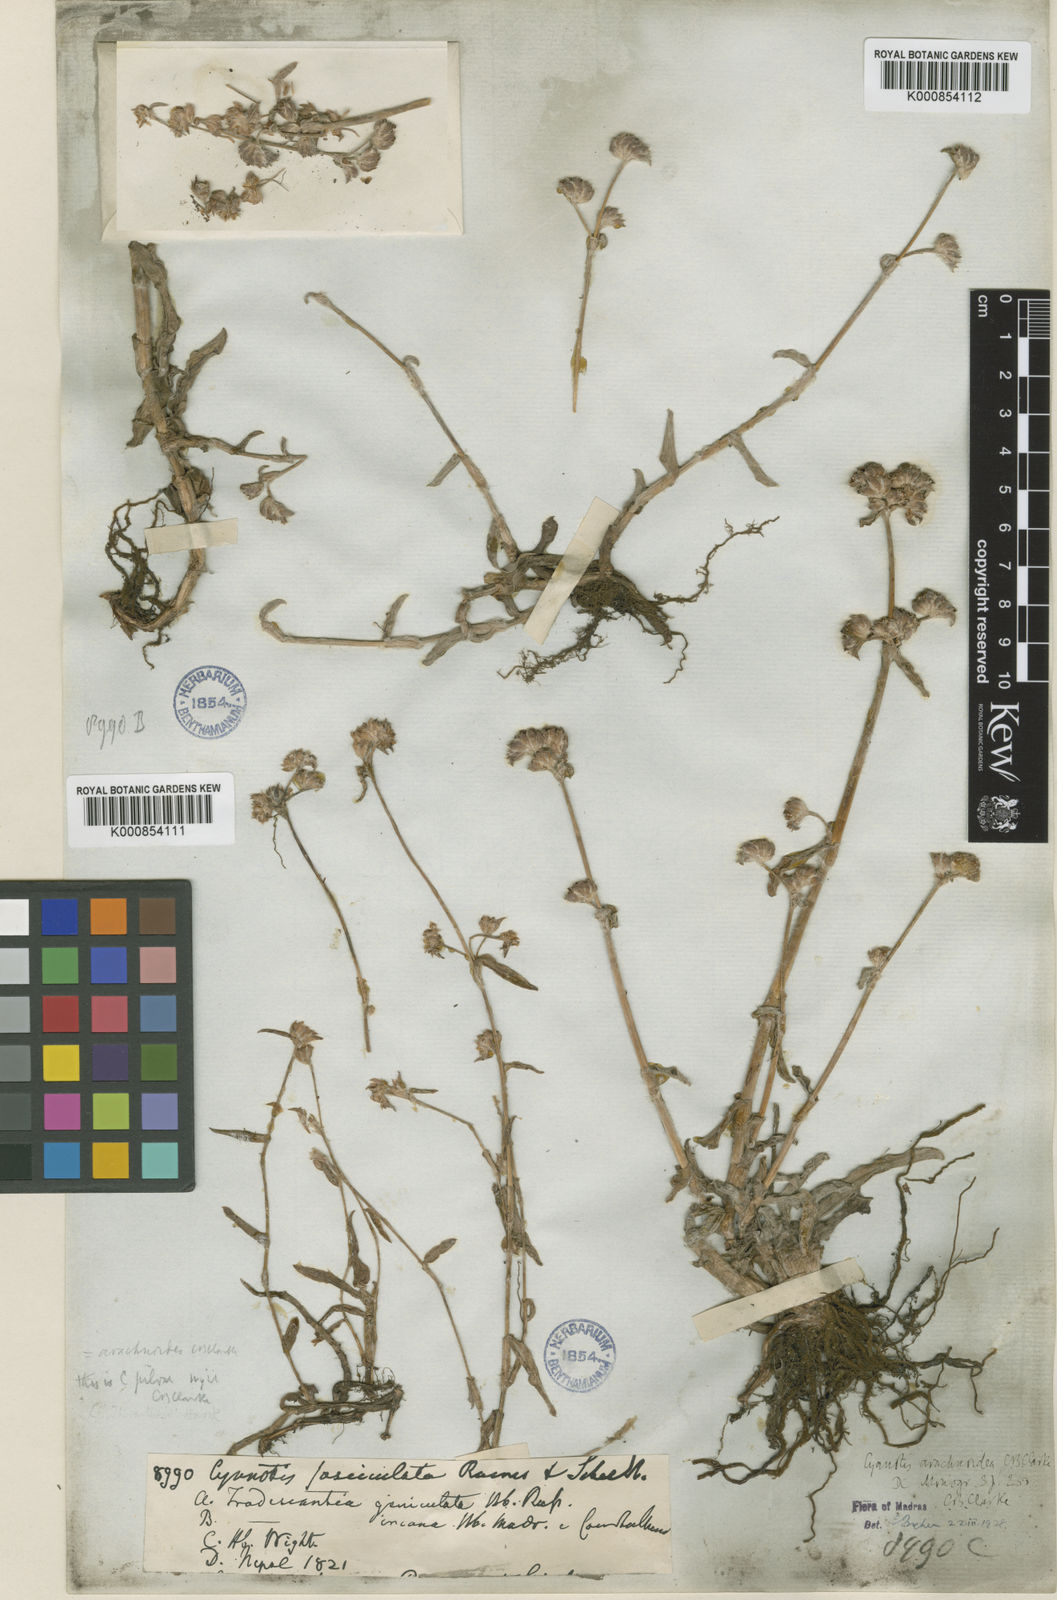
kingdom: Plantae
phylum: Tracheophyta
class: Liliopsida
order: Commelinales
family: Commelinaceae
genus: Cyanotis
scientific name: Cyanotis arachnoidea
